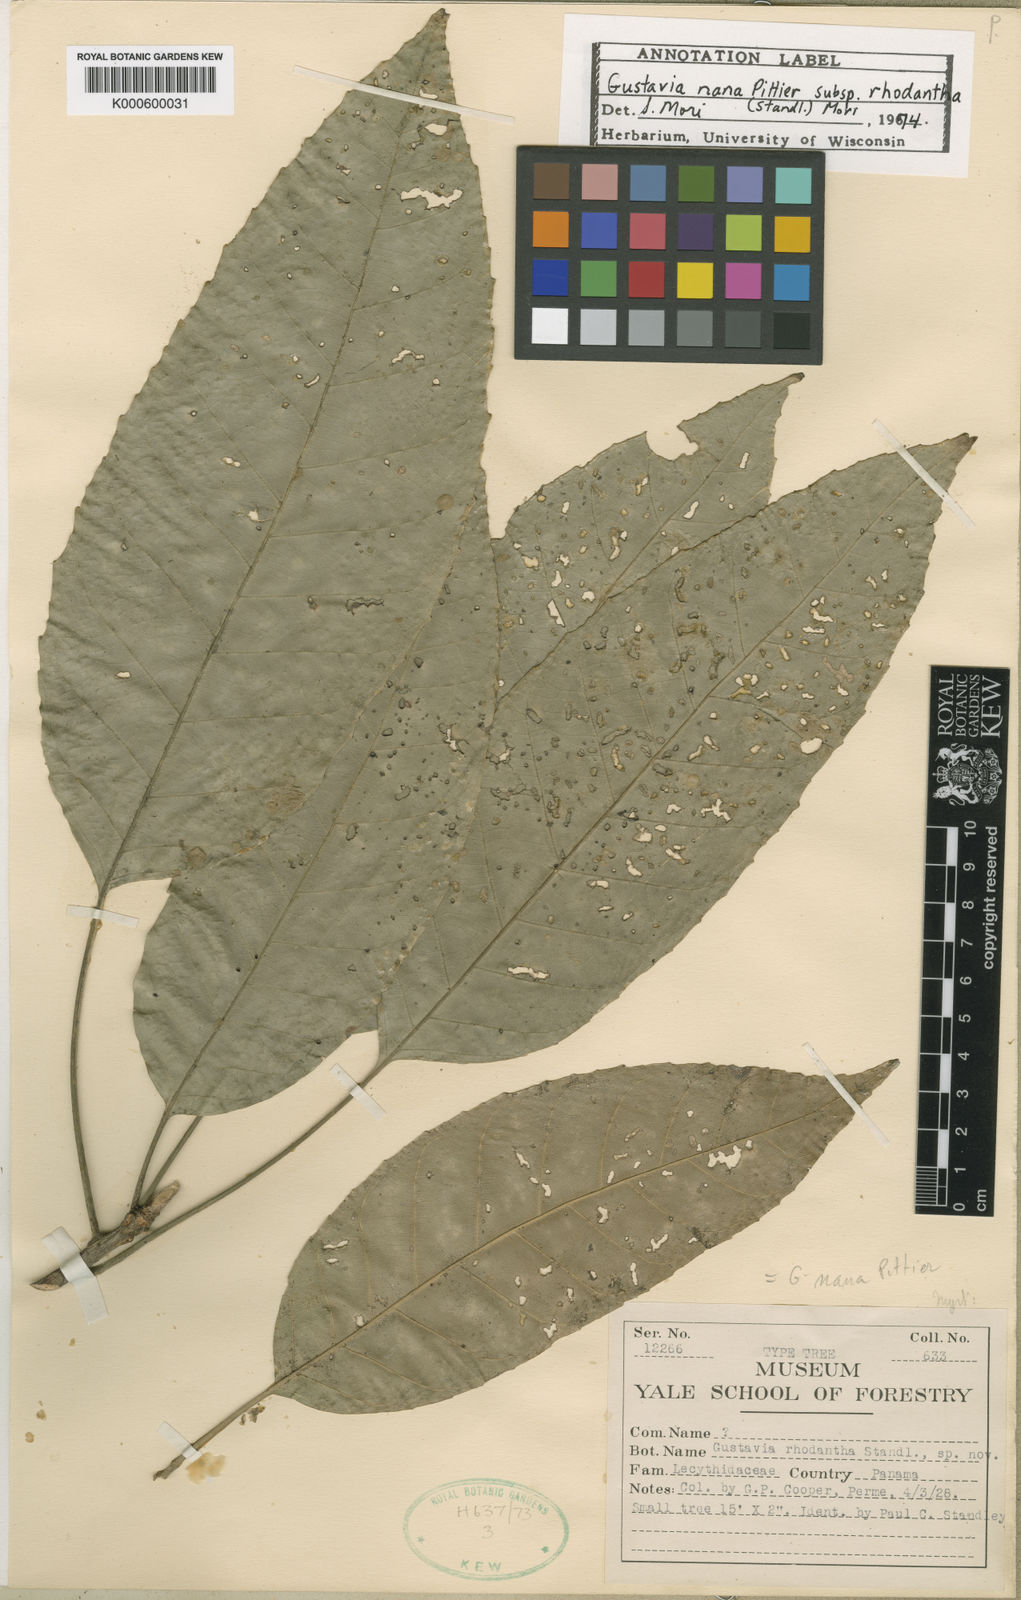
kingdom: Plantae
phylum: Tracheophyta
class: Magnoliopsida
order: Ericales
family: Lecythidaceae
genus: Gustavia
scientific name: Gustavia nana
